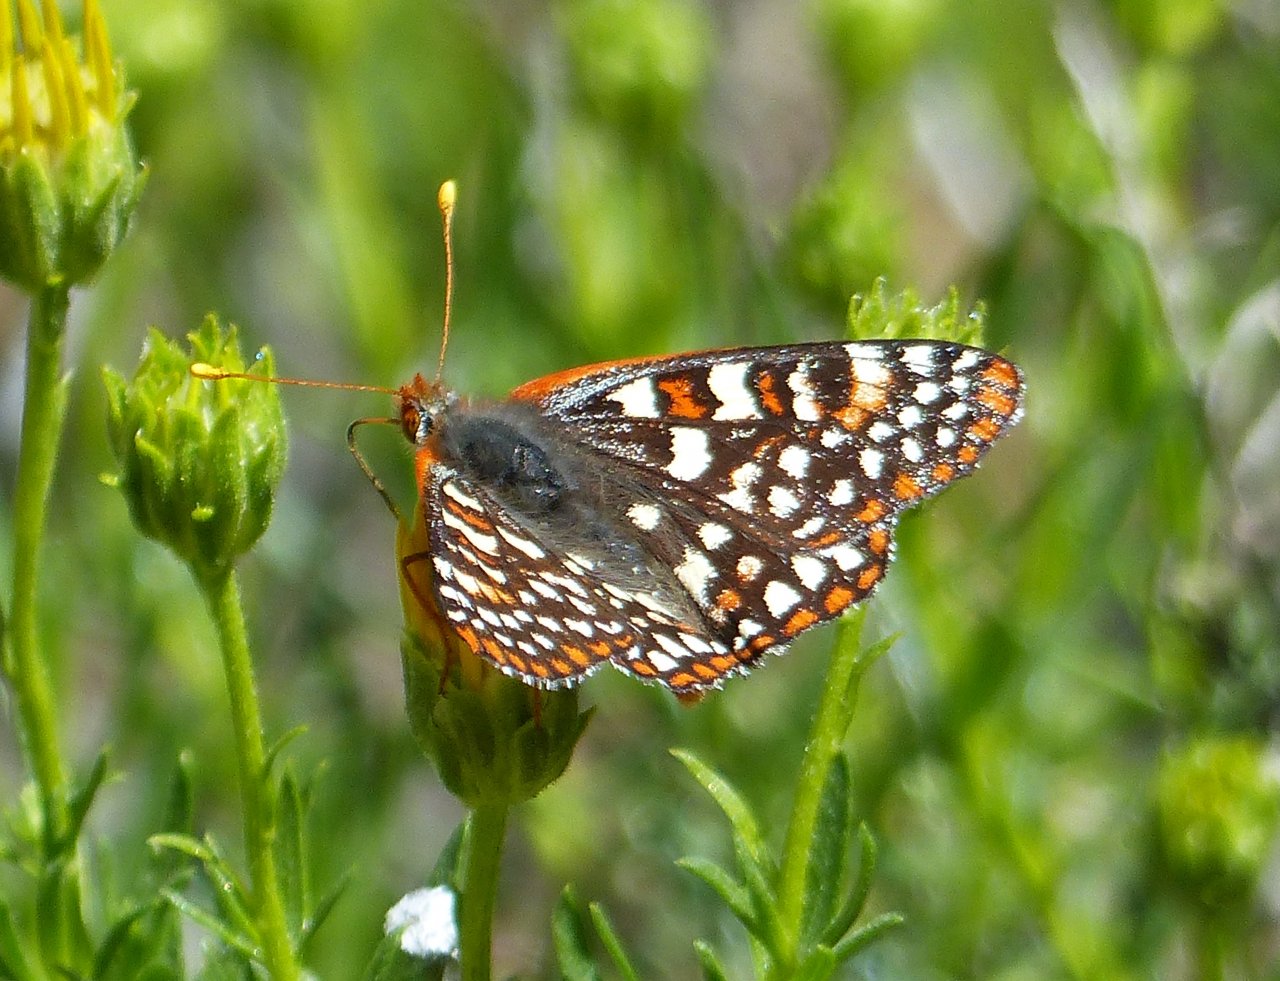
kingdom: Animalia
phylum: Arthropoda
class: Insecta
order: Lepidoptera
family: Nymphalidae
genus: Occidryas
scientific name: Occidryas chalcedona
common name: Chalcedon Checkerspot
